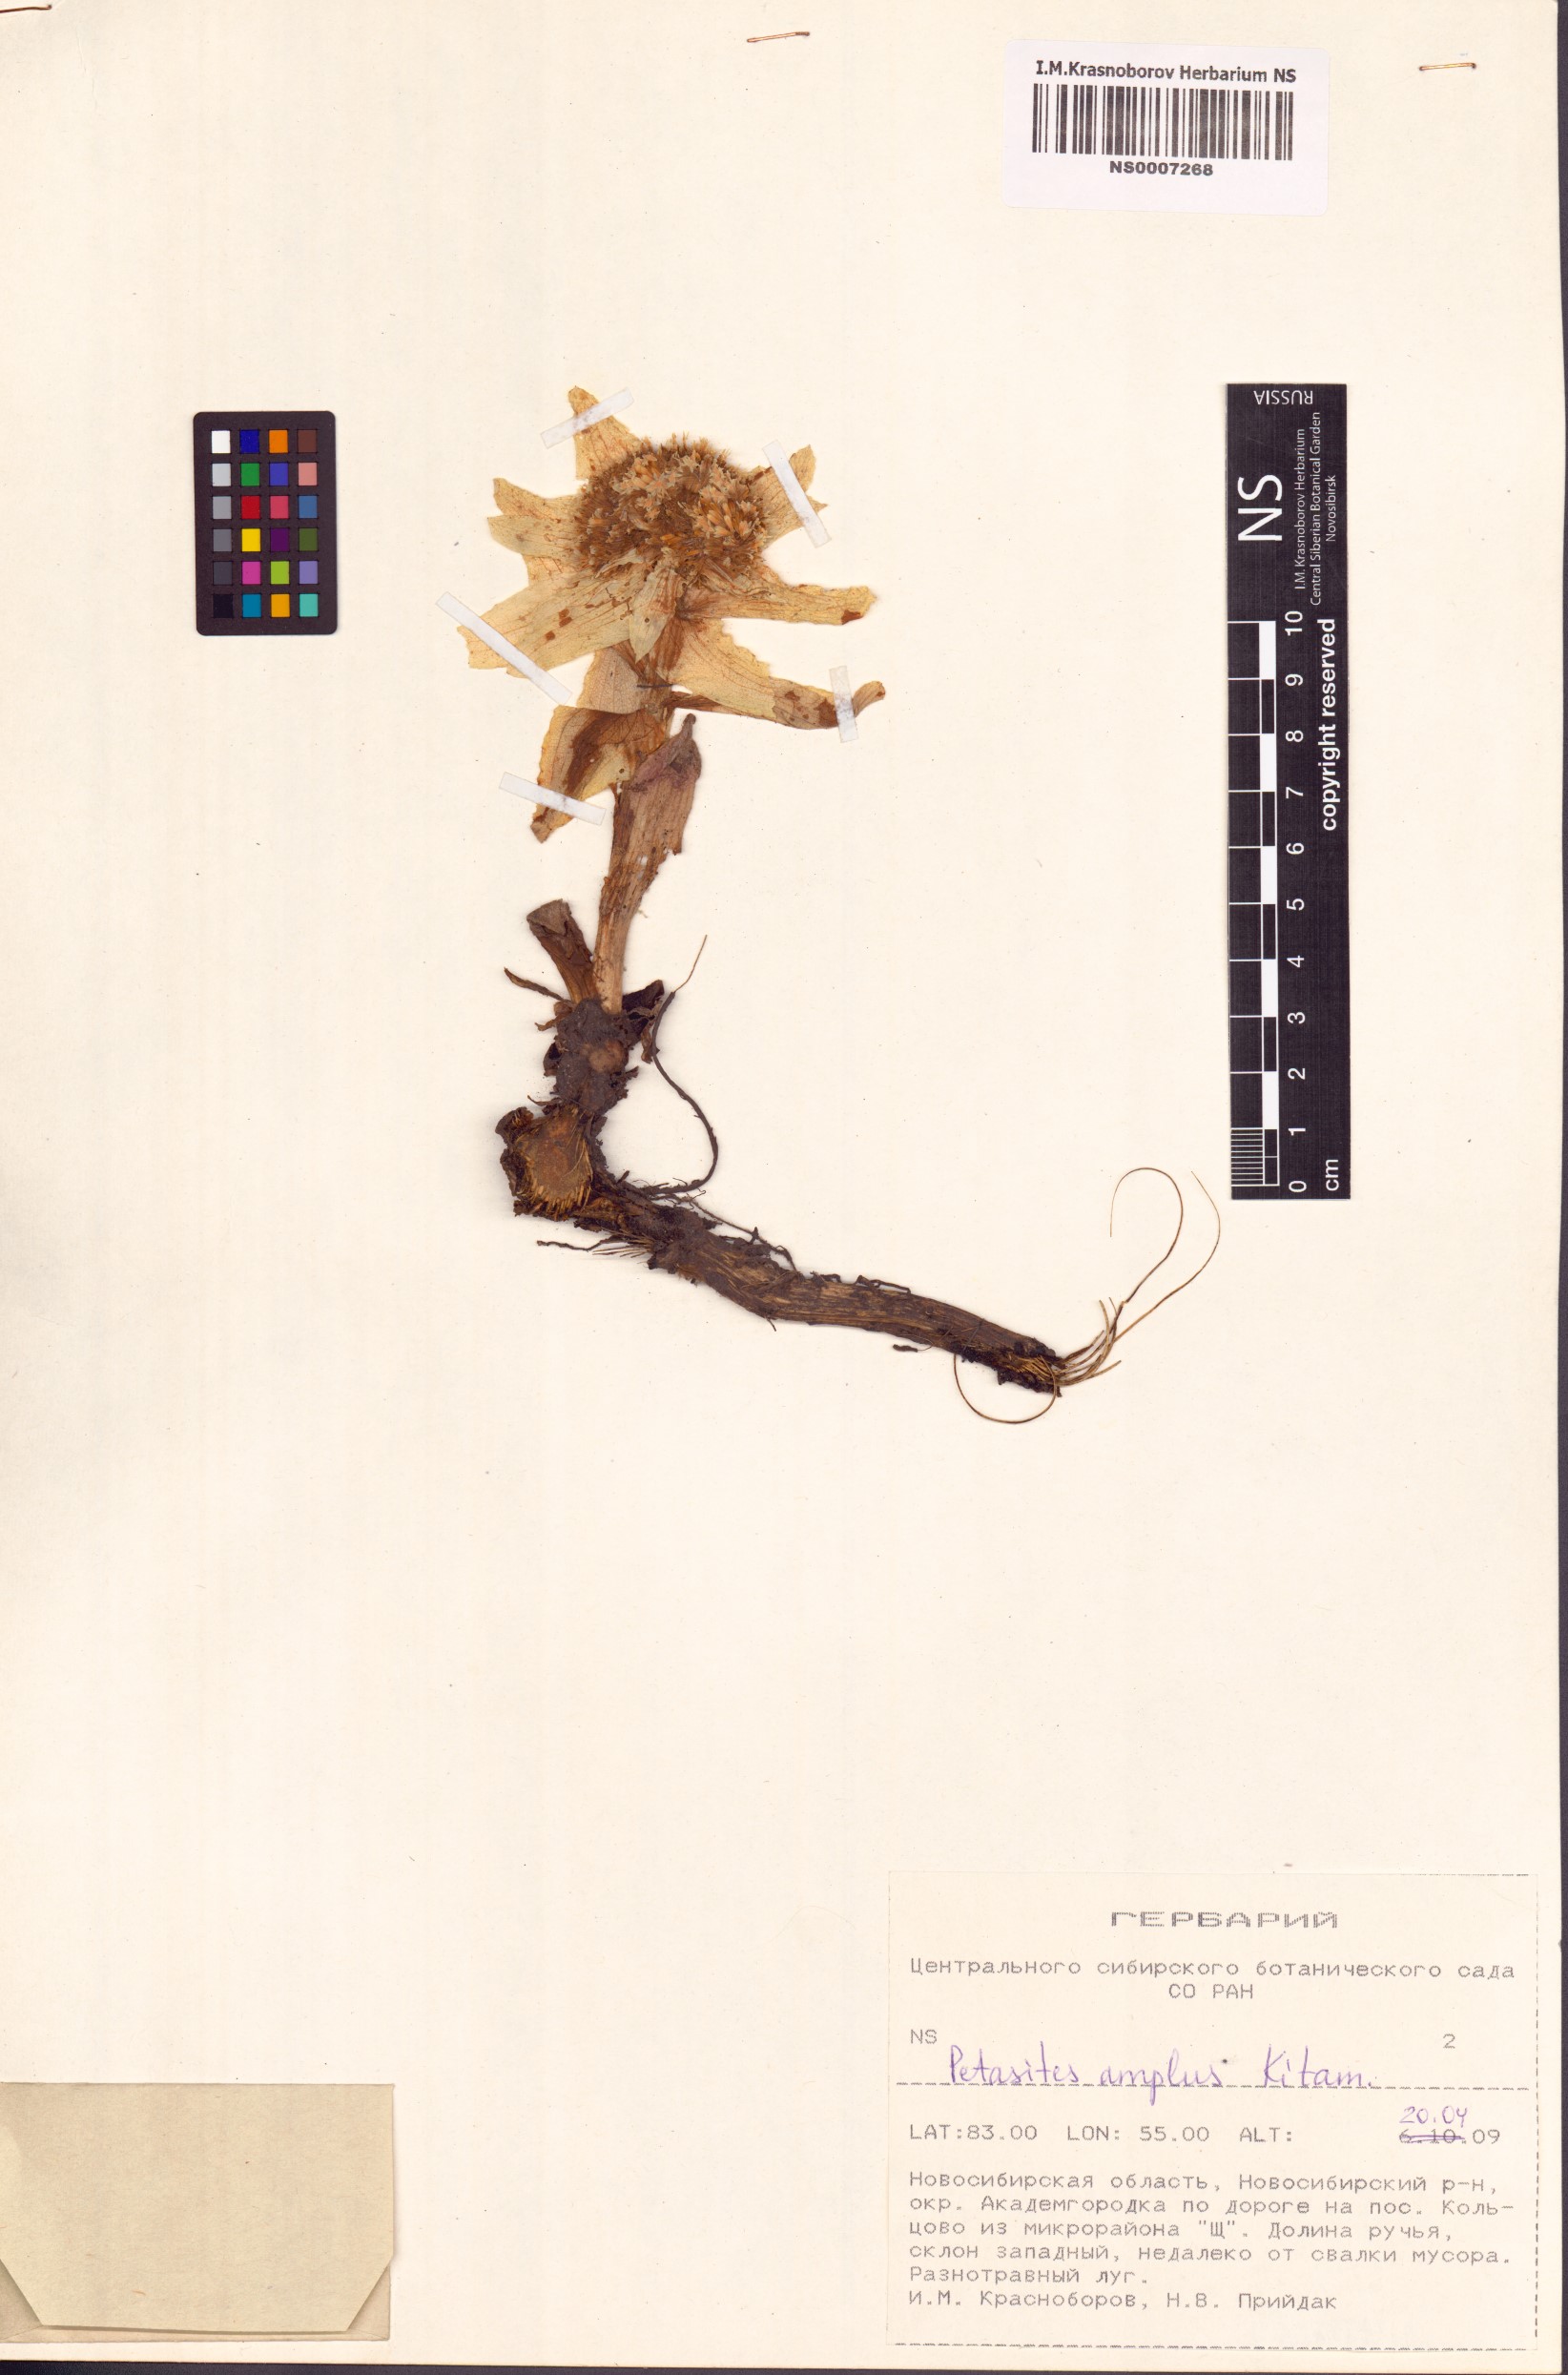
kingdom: Plantae
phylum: Tracheophyta
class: Magnoliopsida
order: Asterales
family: Asteraceae
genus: Petasites
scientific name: Petasites japonicus
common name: Giant butterbur
